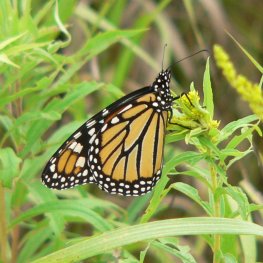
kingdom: Animalia
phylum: Arthropoda
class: Insecta
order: Lepidoptera
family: Nymphalidae
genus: Danaus
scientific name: Danaus plexippus
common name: Monarch
